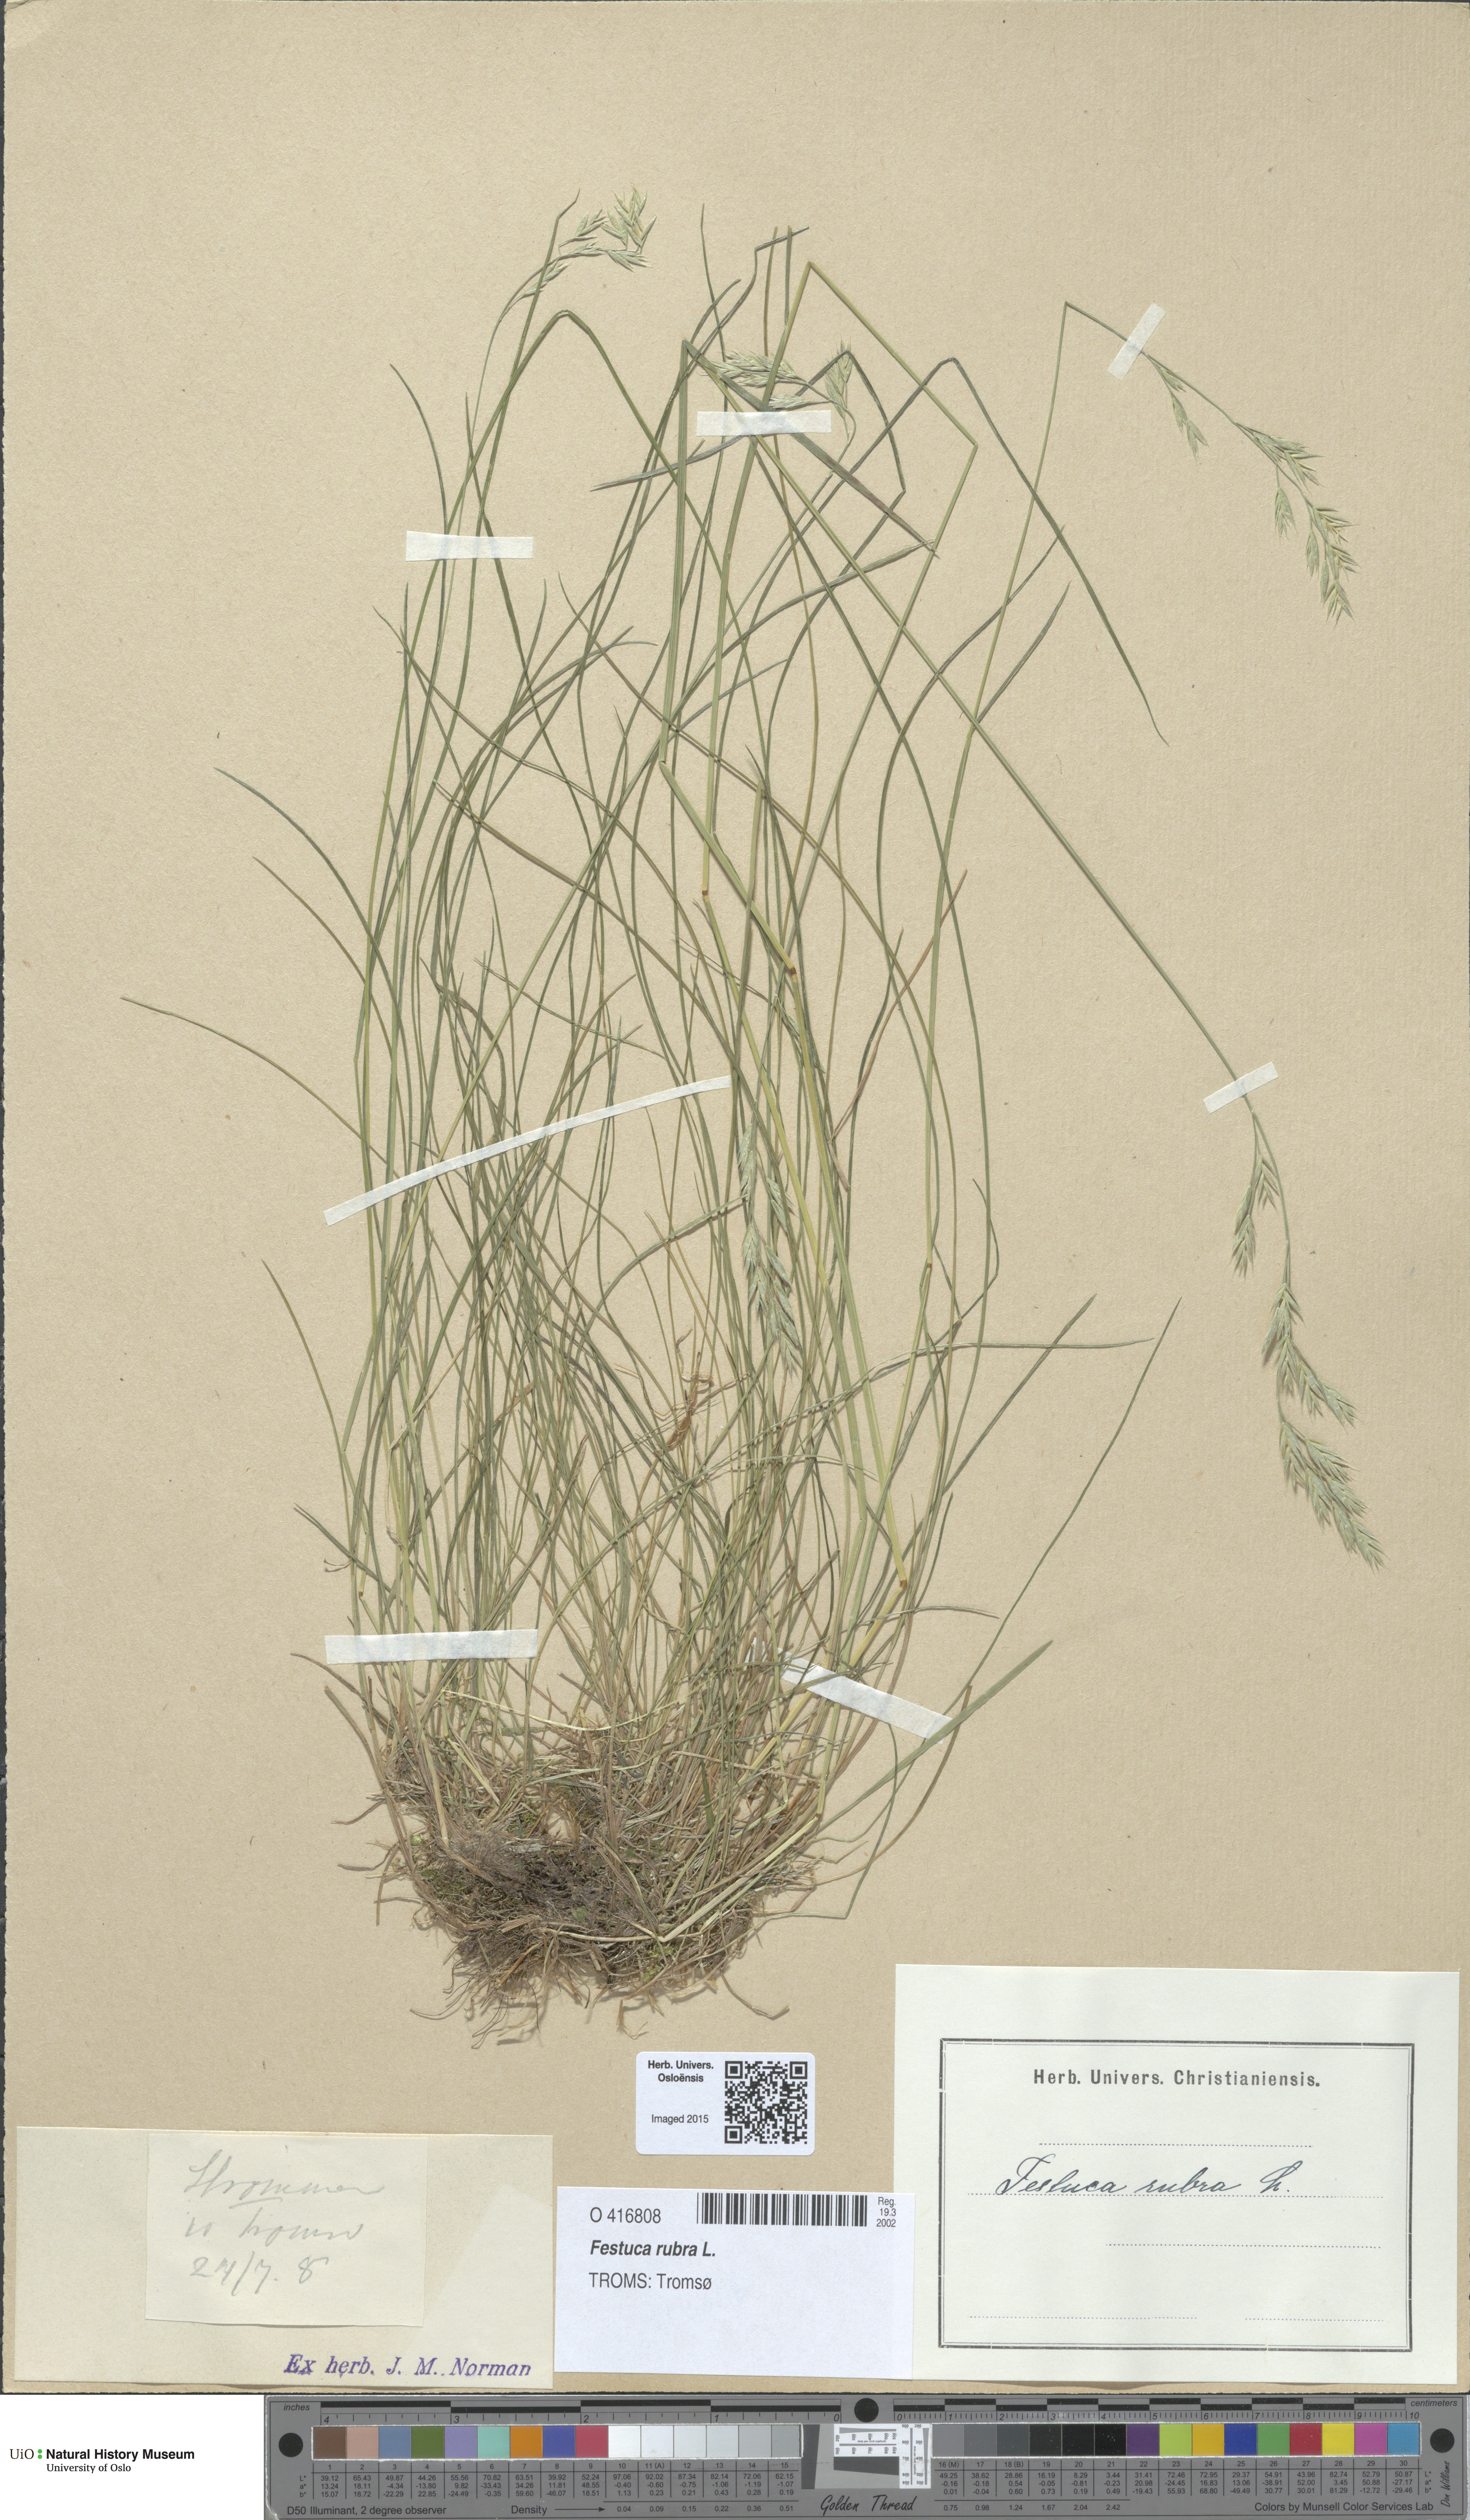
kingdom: Plantae
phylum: Tracheophyta
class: Liliopsida
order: Poales
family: Poaceae
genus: Festuca
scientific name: Festuca rubra
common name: Red fescue
